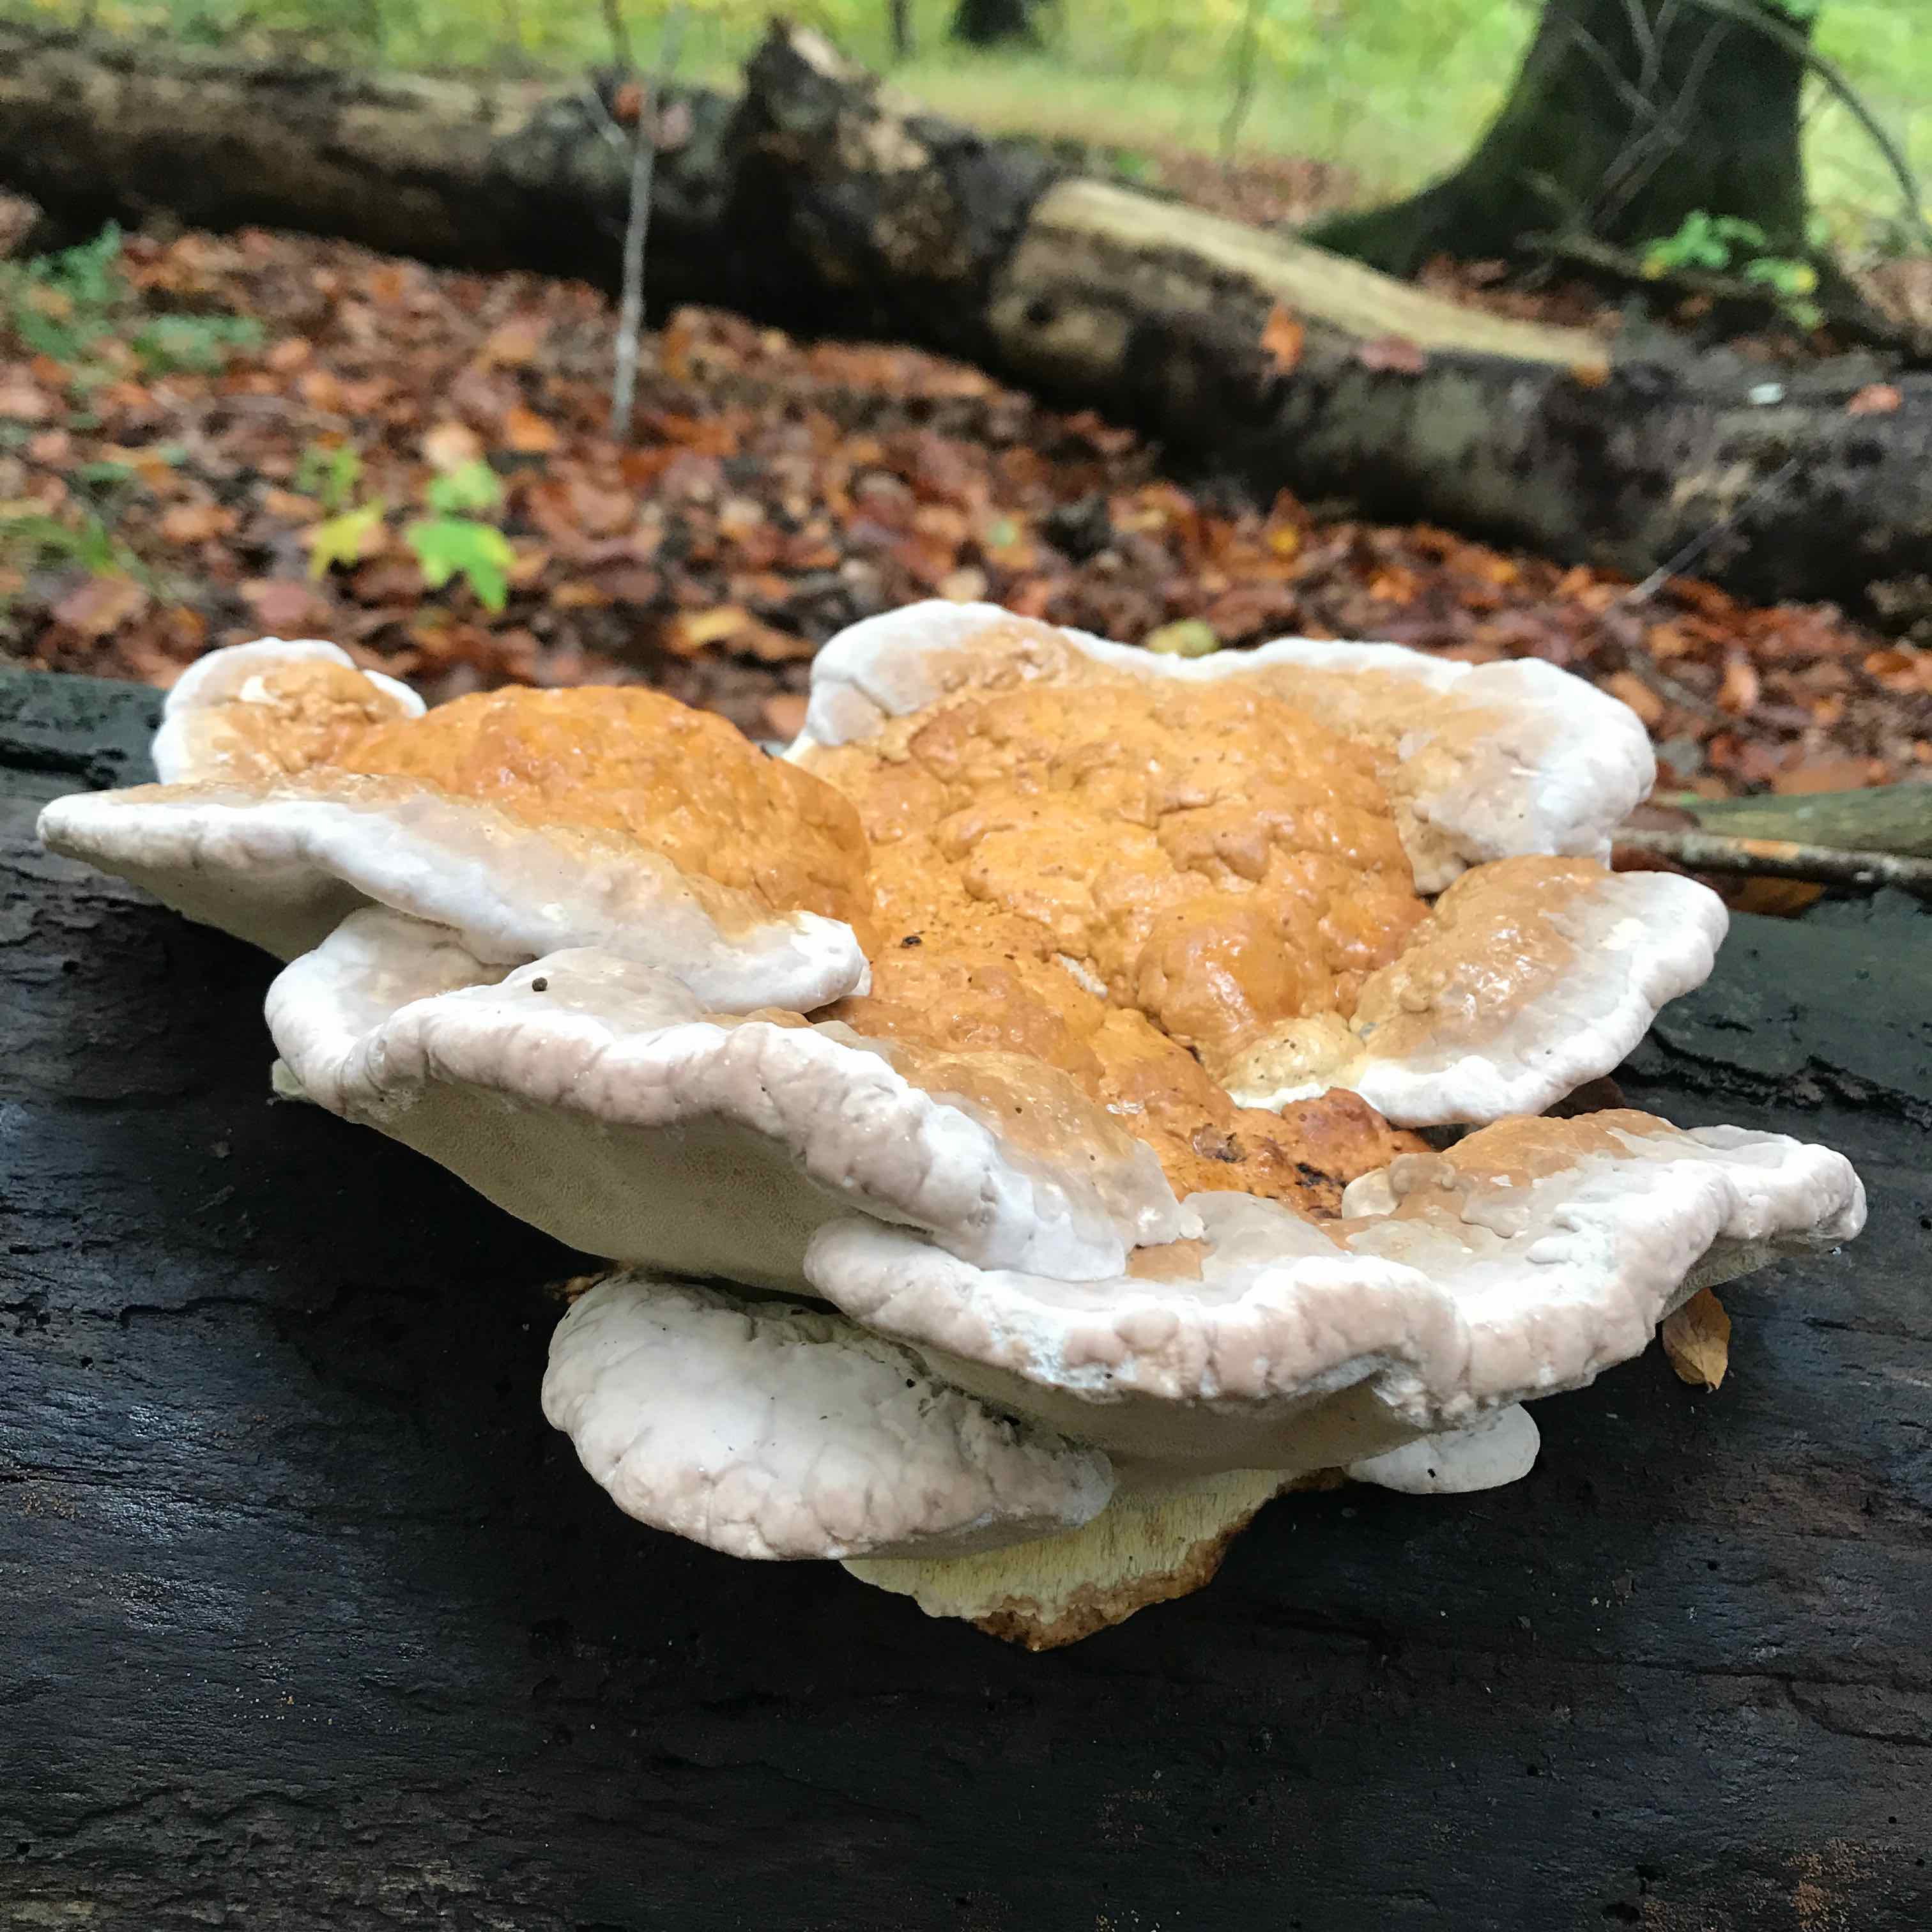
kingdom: Fungi
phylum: Basidiomycota
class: Agaricomycetes
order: Polyporales
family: Fomitopsidaceae
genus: Fomitopsis
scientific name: Fomitopsis pinicola
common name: randbæltet hovporesvamp
